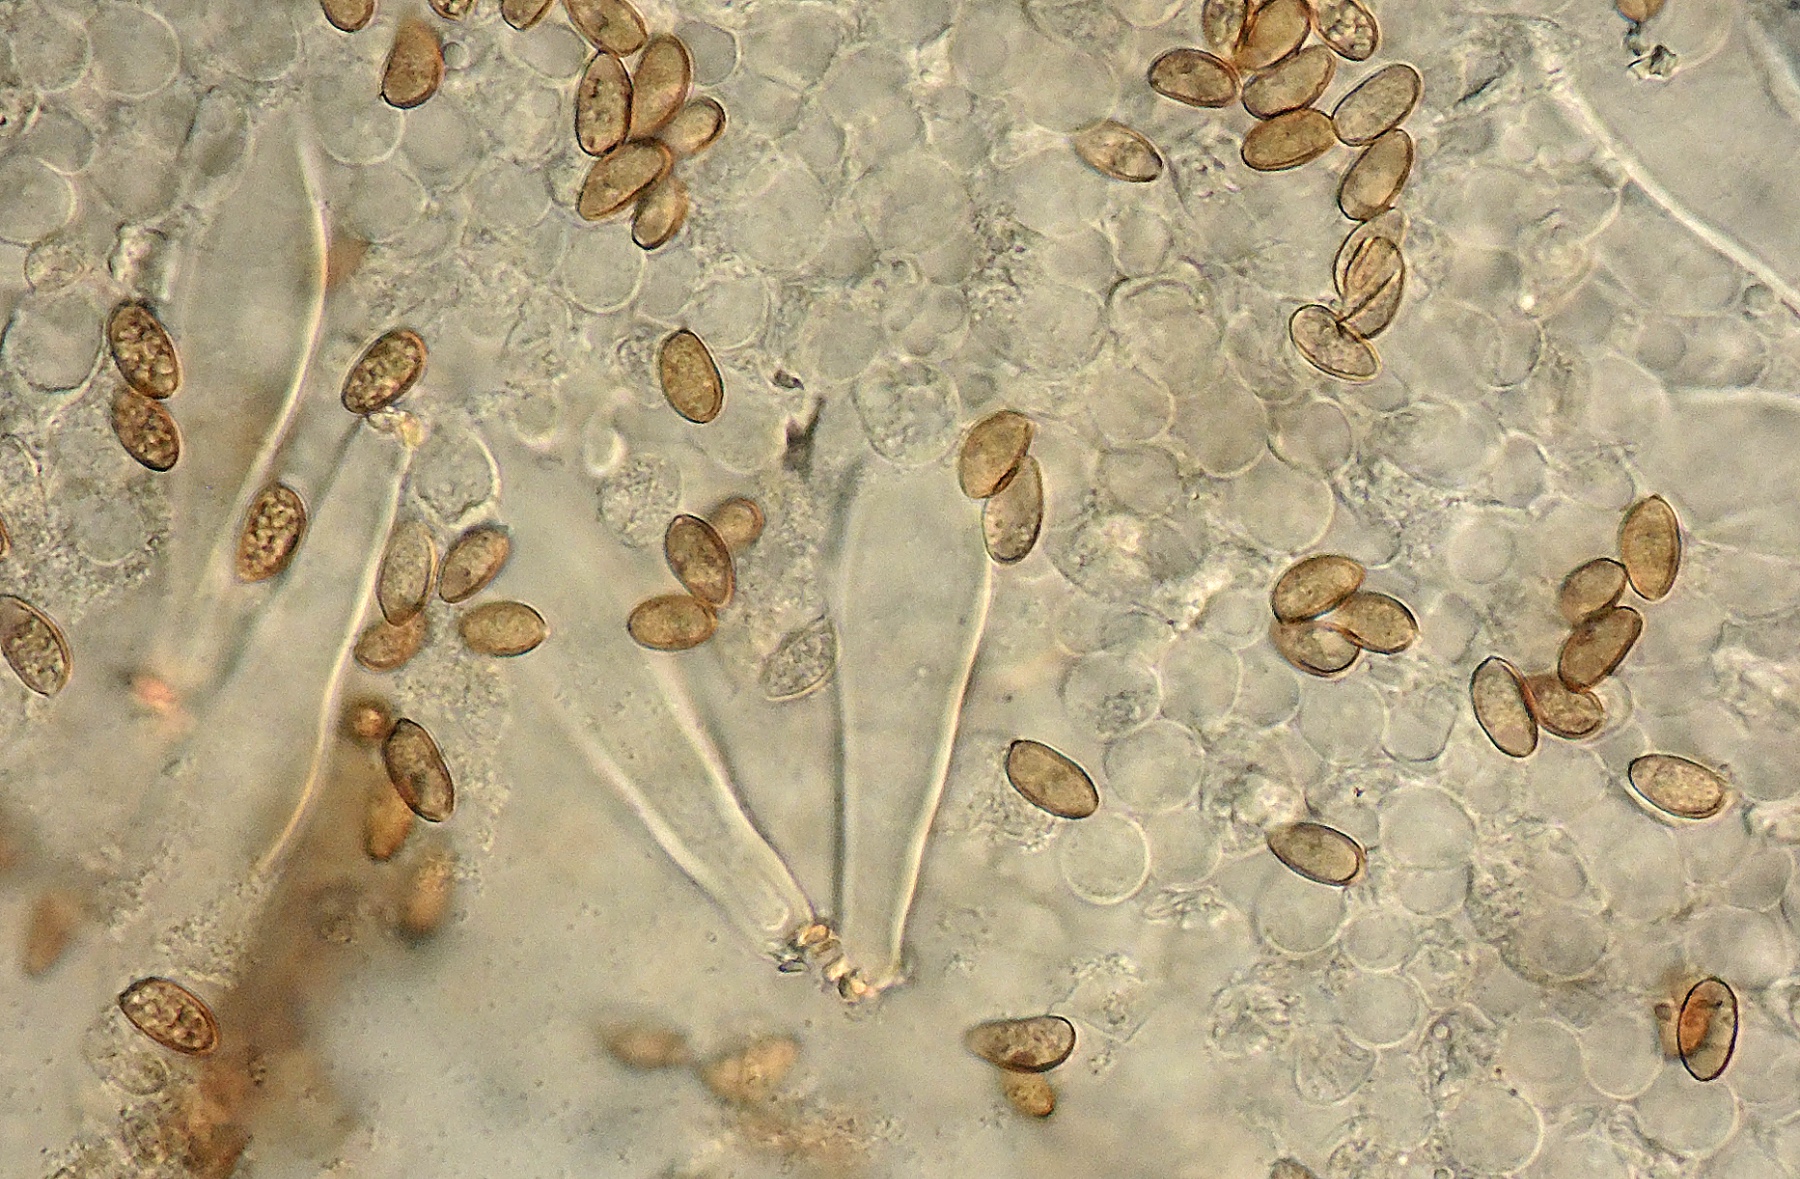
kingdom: Fungi
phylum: Basidiomycota
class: Agaricomycetes
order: Agaricales
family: Inocybaceae
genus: Inocybe
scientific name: Inocybe devina
